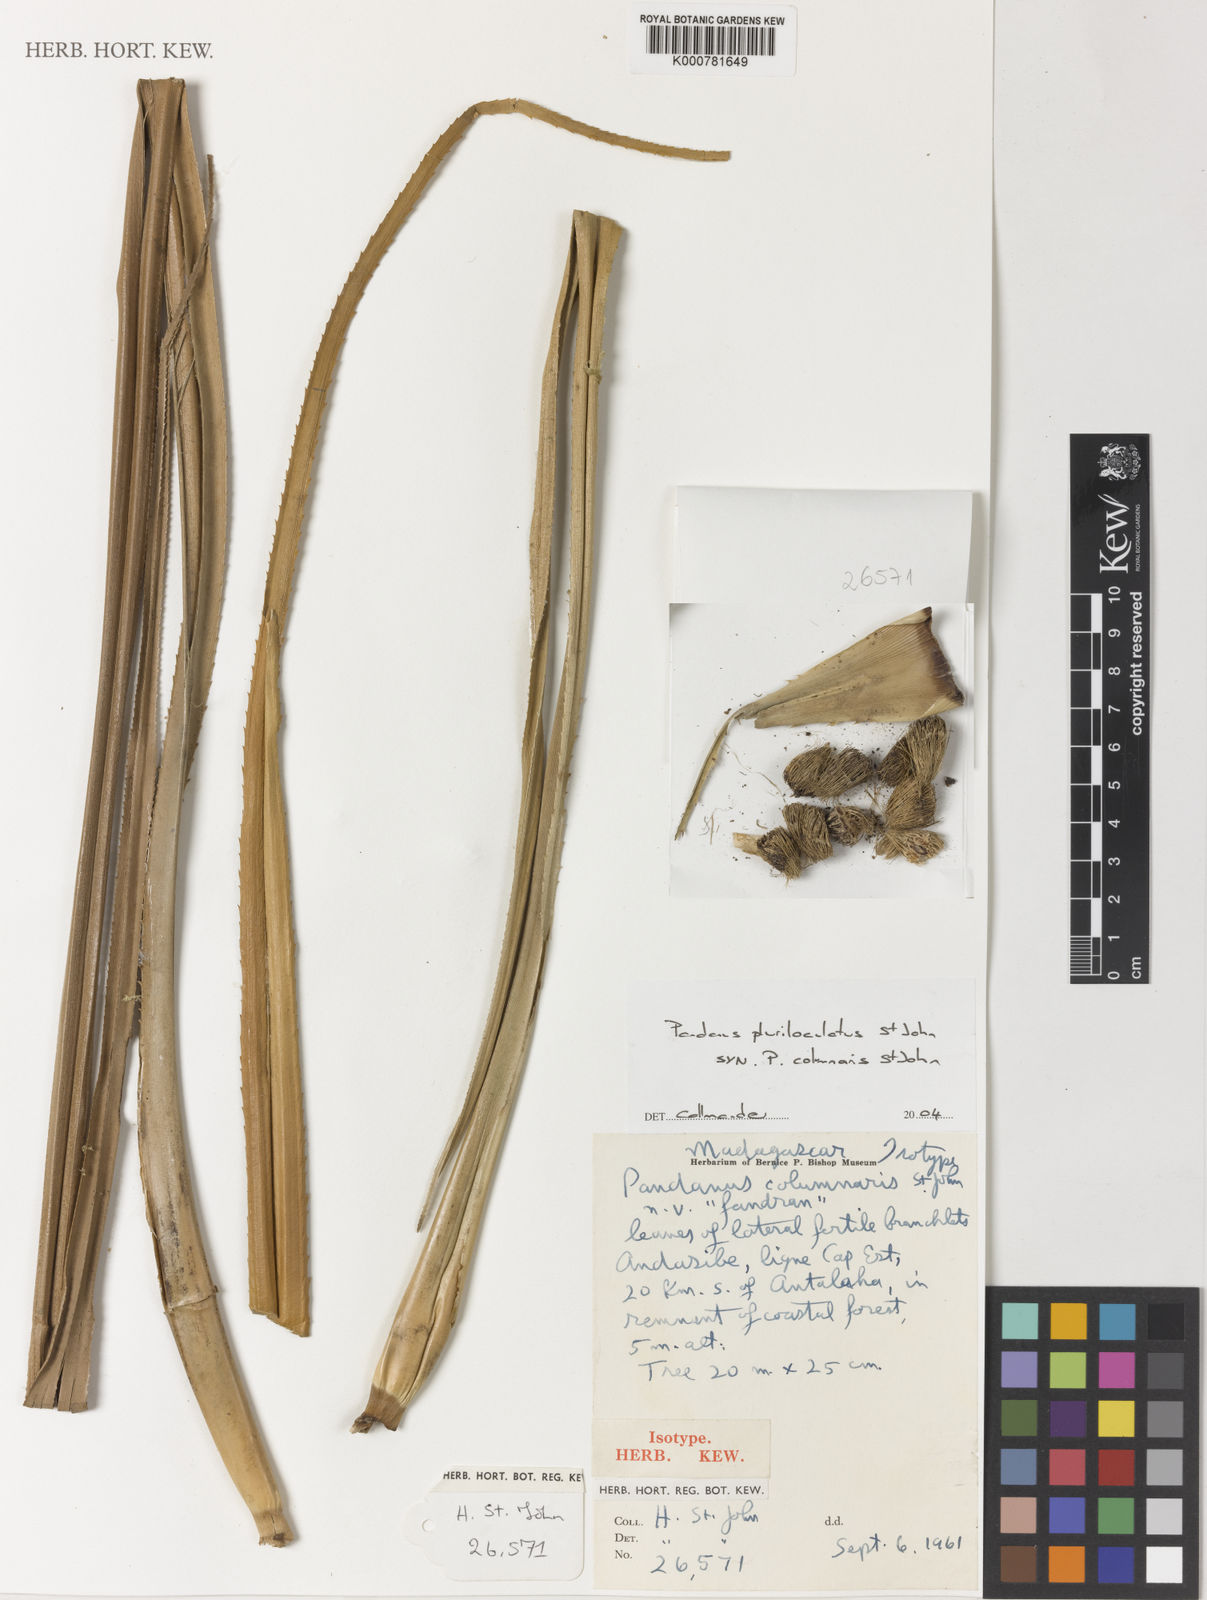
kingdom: Plantae
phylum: Tracheophyta
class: Liliopsida
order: Pandanales
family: Pandanaceae
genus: Pandanus
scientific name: Pandanus pluriloculatus
